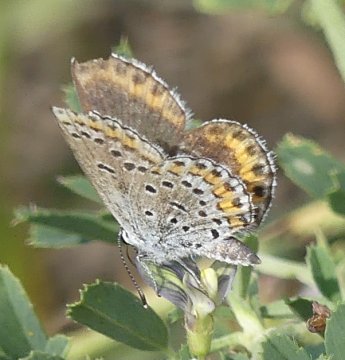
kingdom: Animalia
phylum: Arthropoda
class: Insecta
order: Lepidoptera
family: Lycaenidae
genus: Lycaeides
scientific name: Lycaeides melissa
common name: Melissa Blue
